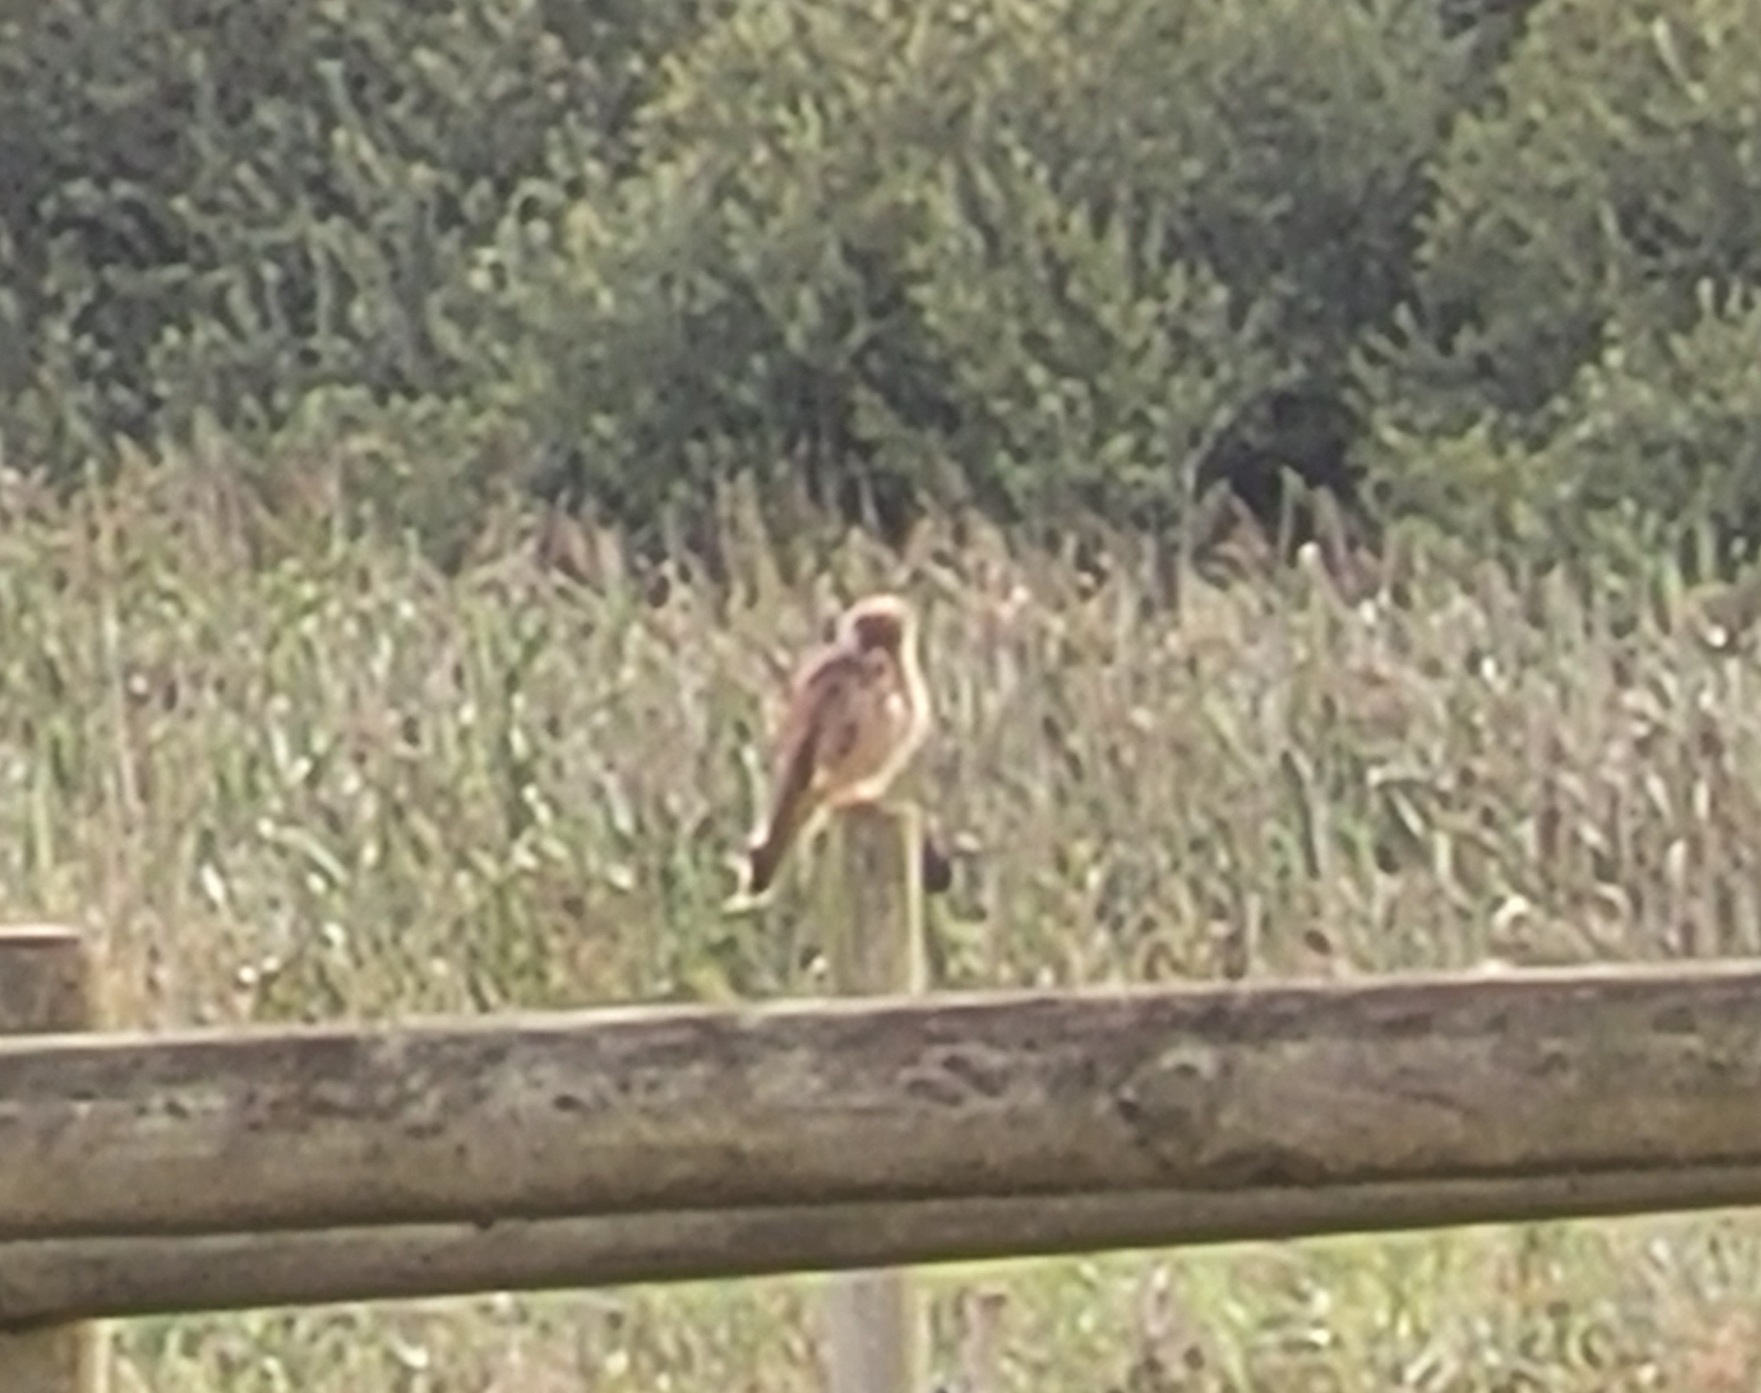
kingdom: Animalia
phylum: Chordata
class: Aves
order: Falconiformes
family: Falconidae
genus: Falco
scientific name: Falco tinnunculus
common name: Tårnfalk
